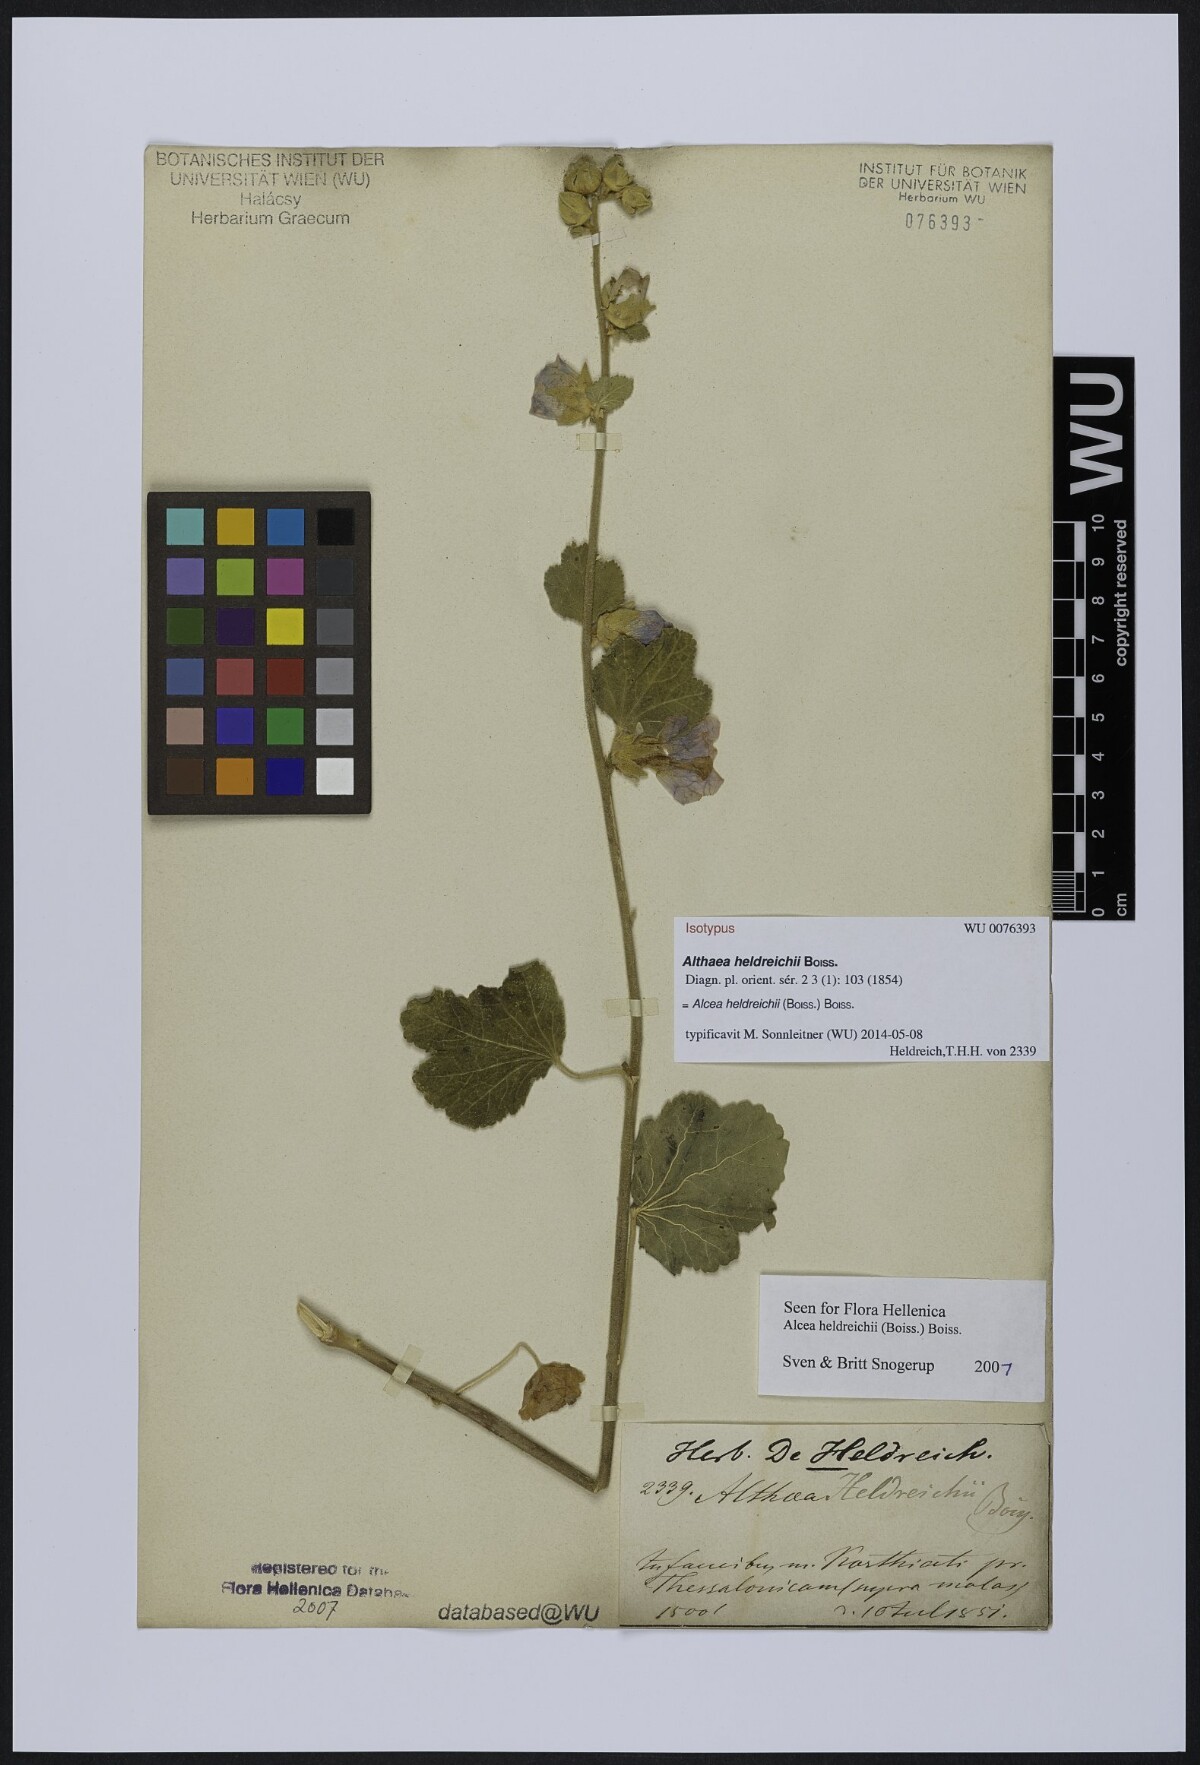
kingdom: Plantae
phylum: Tracheophyta
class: Magnoliopsida
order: Malvales
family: Malvaceae
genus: Alcea
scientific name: Alcea heldreichii
